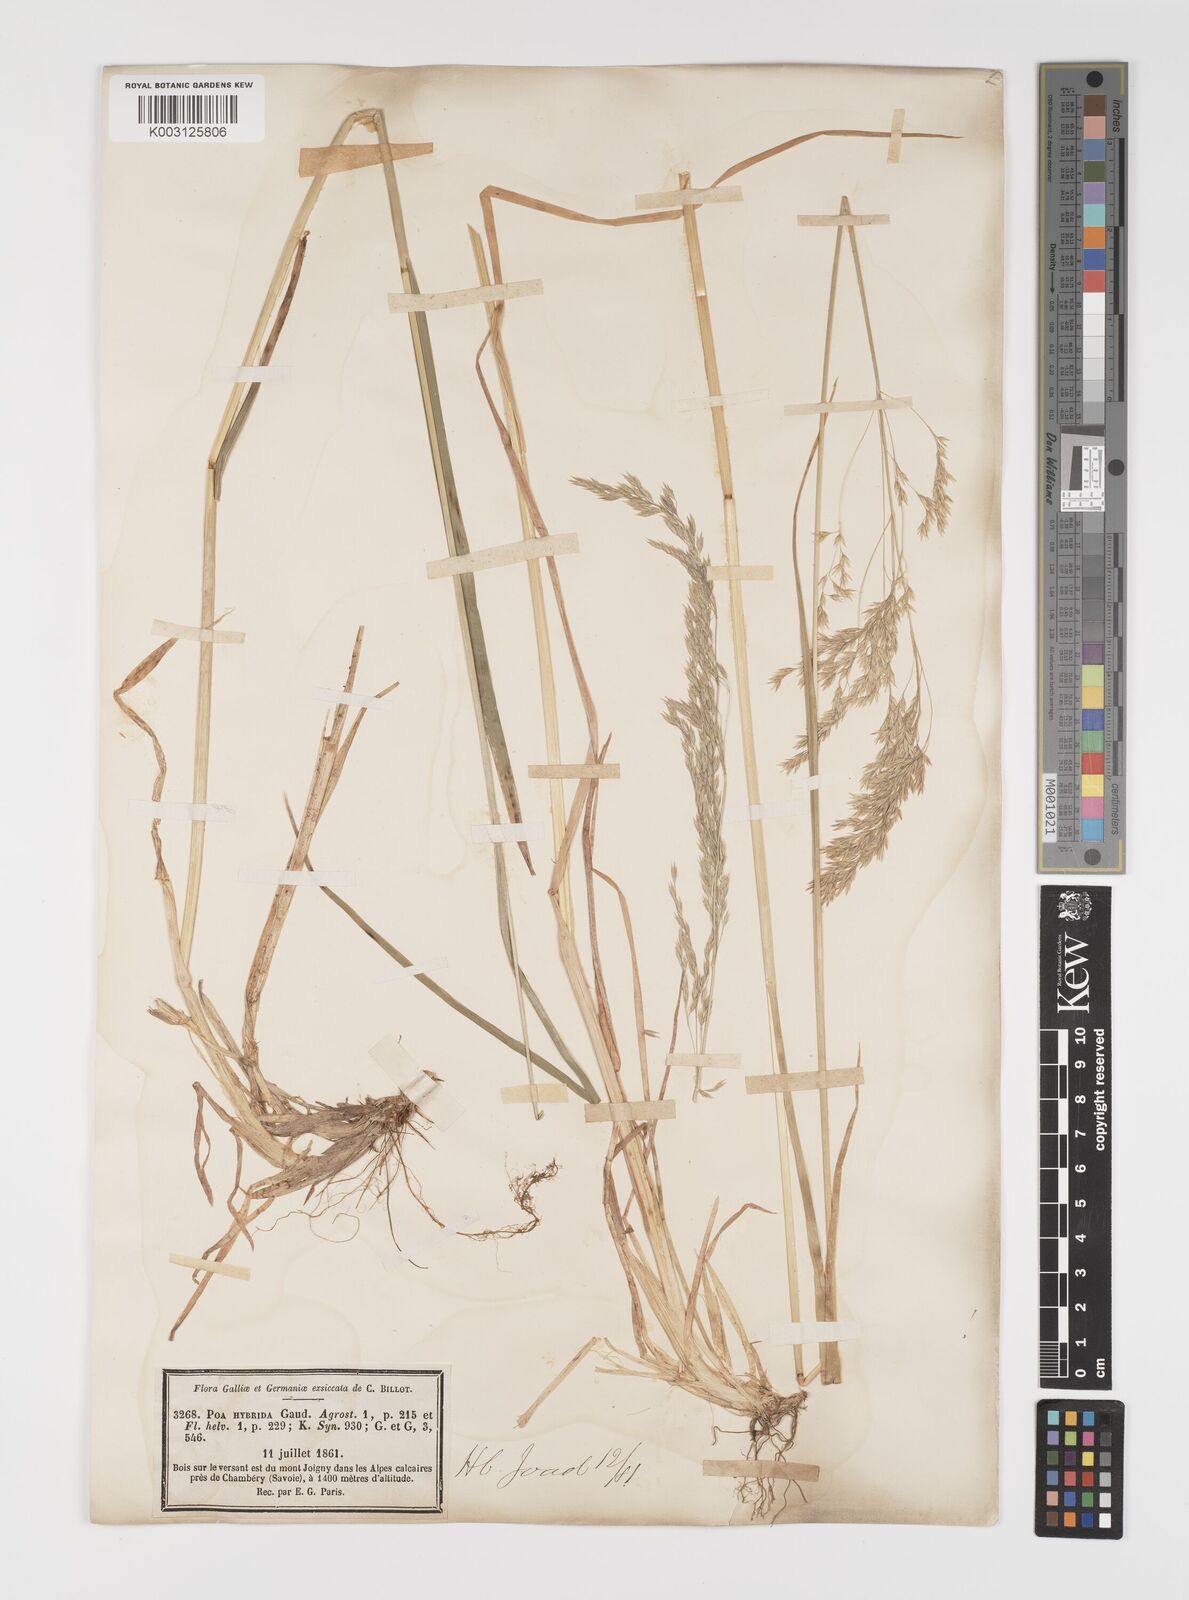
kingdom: Plantae
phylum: Tracheophyta
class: Liliopsida
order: Poales
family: Poaceae
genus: Poa
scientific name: Poa hybrida
